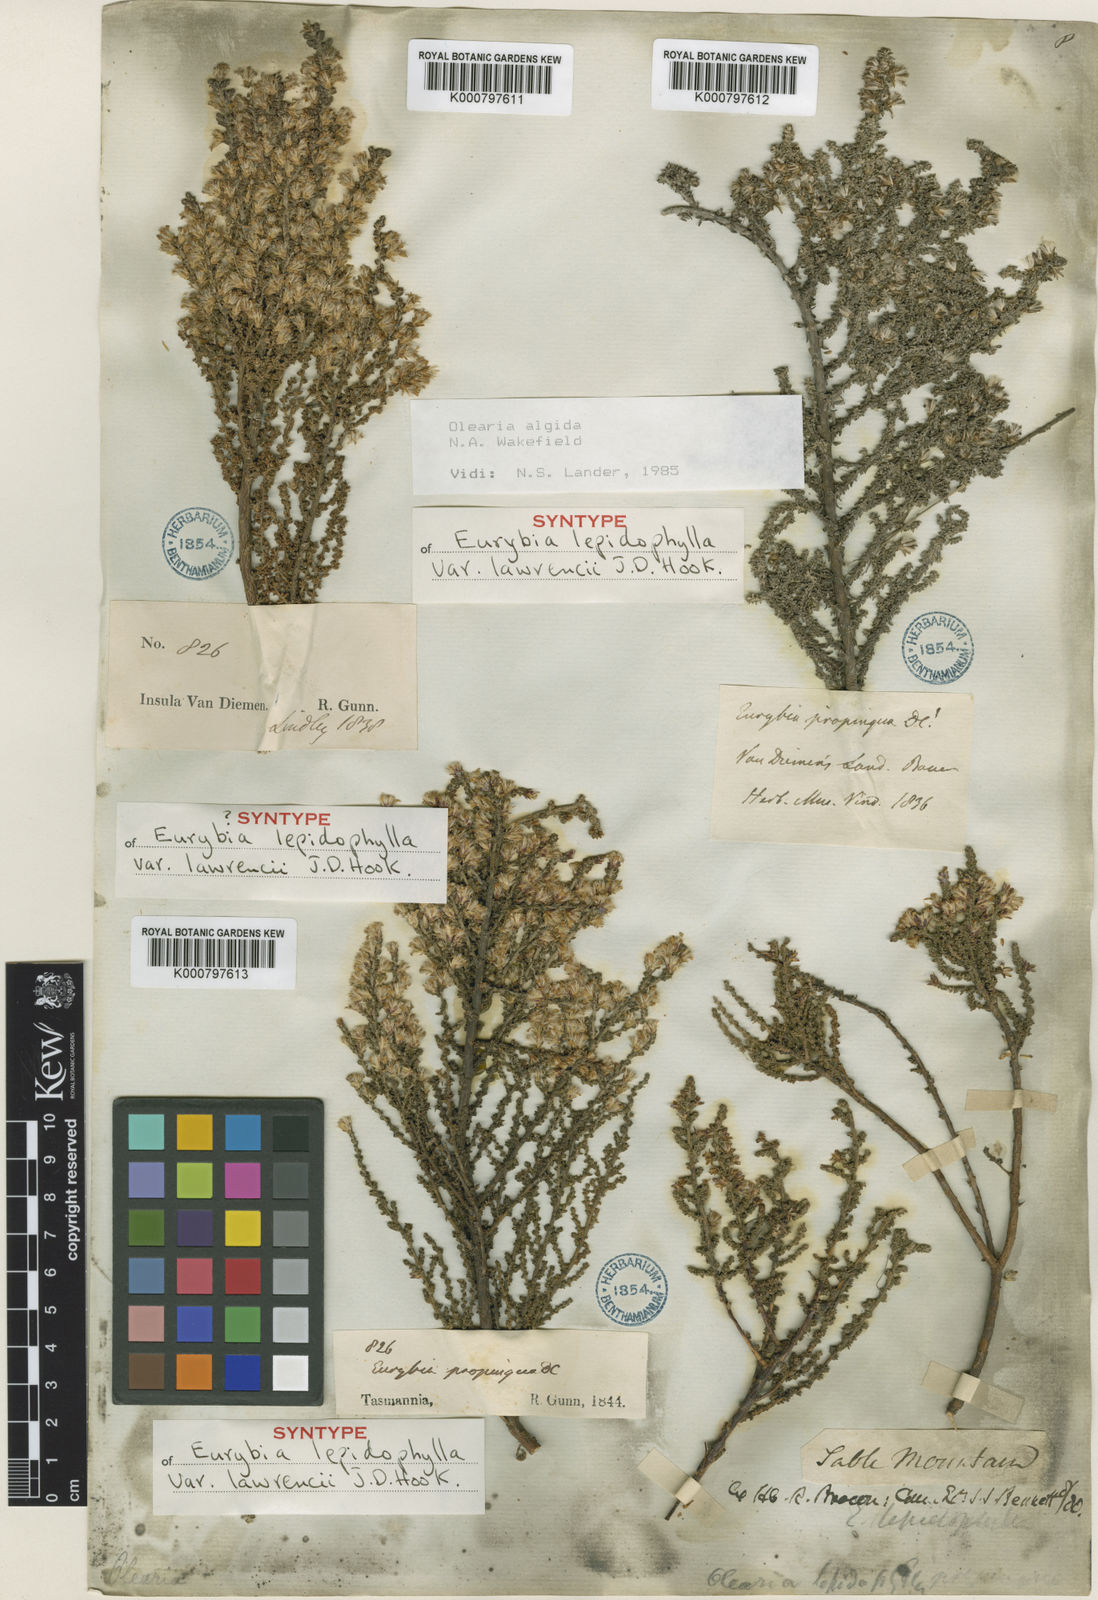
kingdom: Plantae
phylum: Tracheophyta
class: Magnoliopsida
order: Asterales
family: Asteraceae
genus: Olearia
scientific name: Olearia algida
